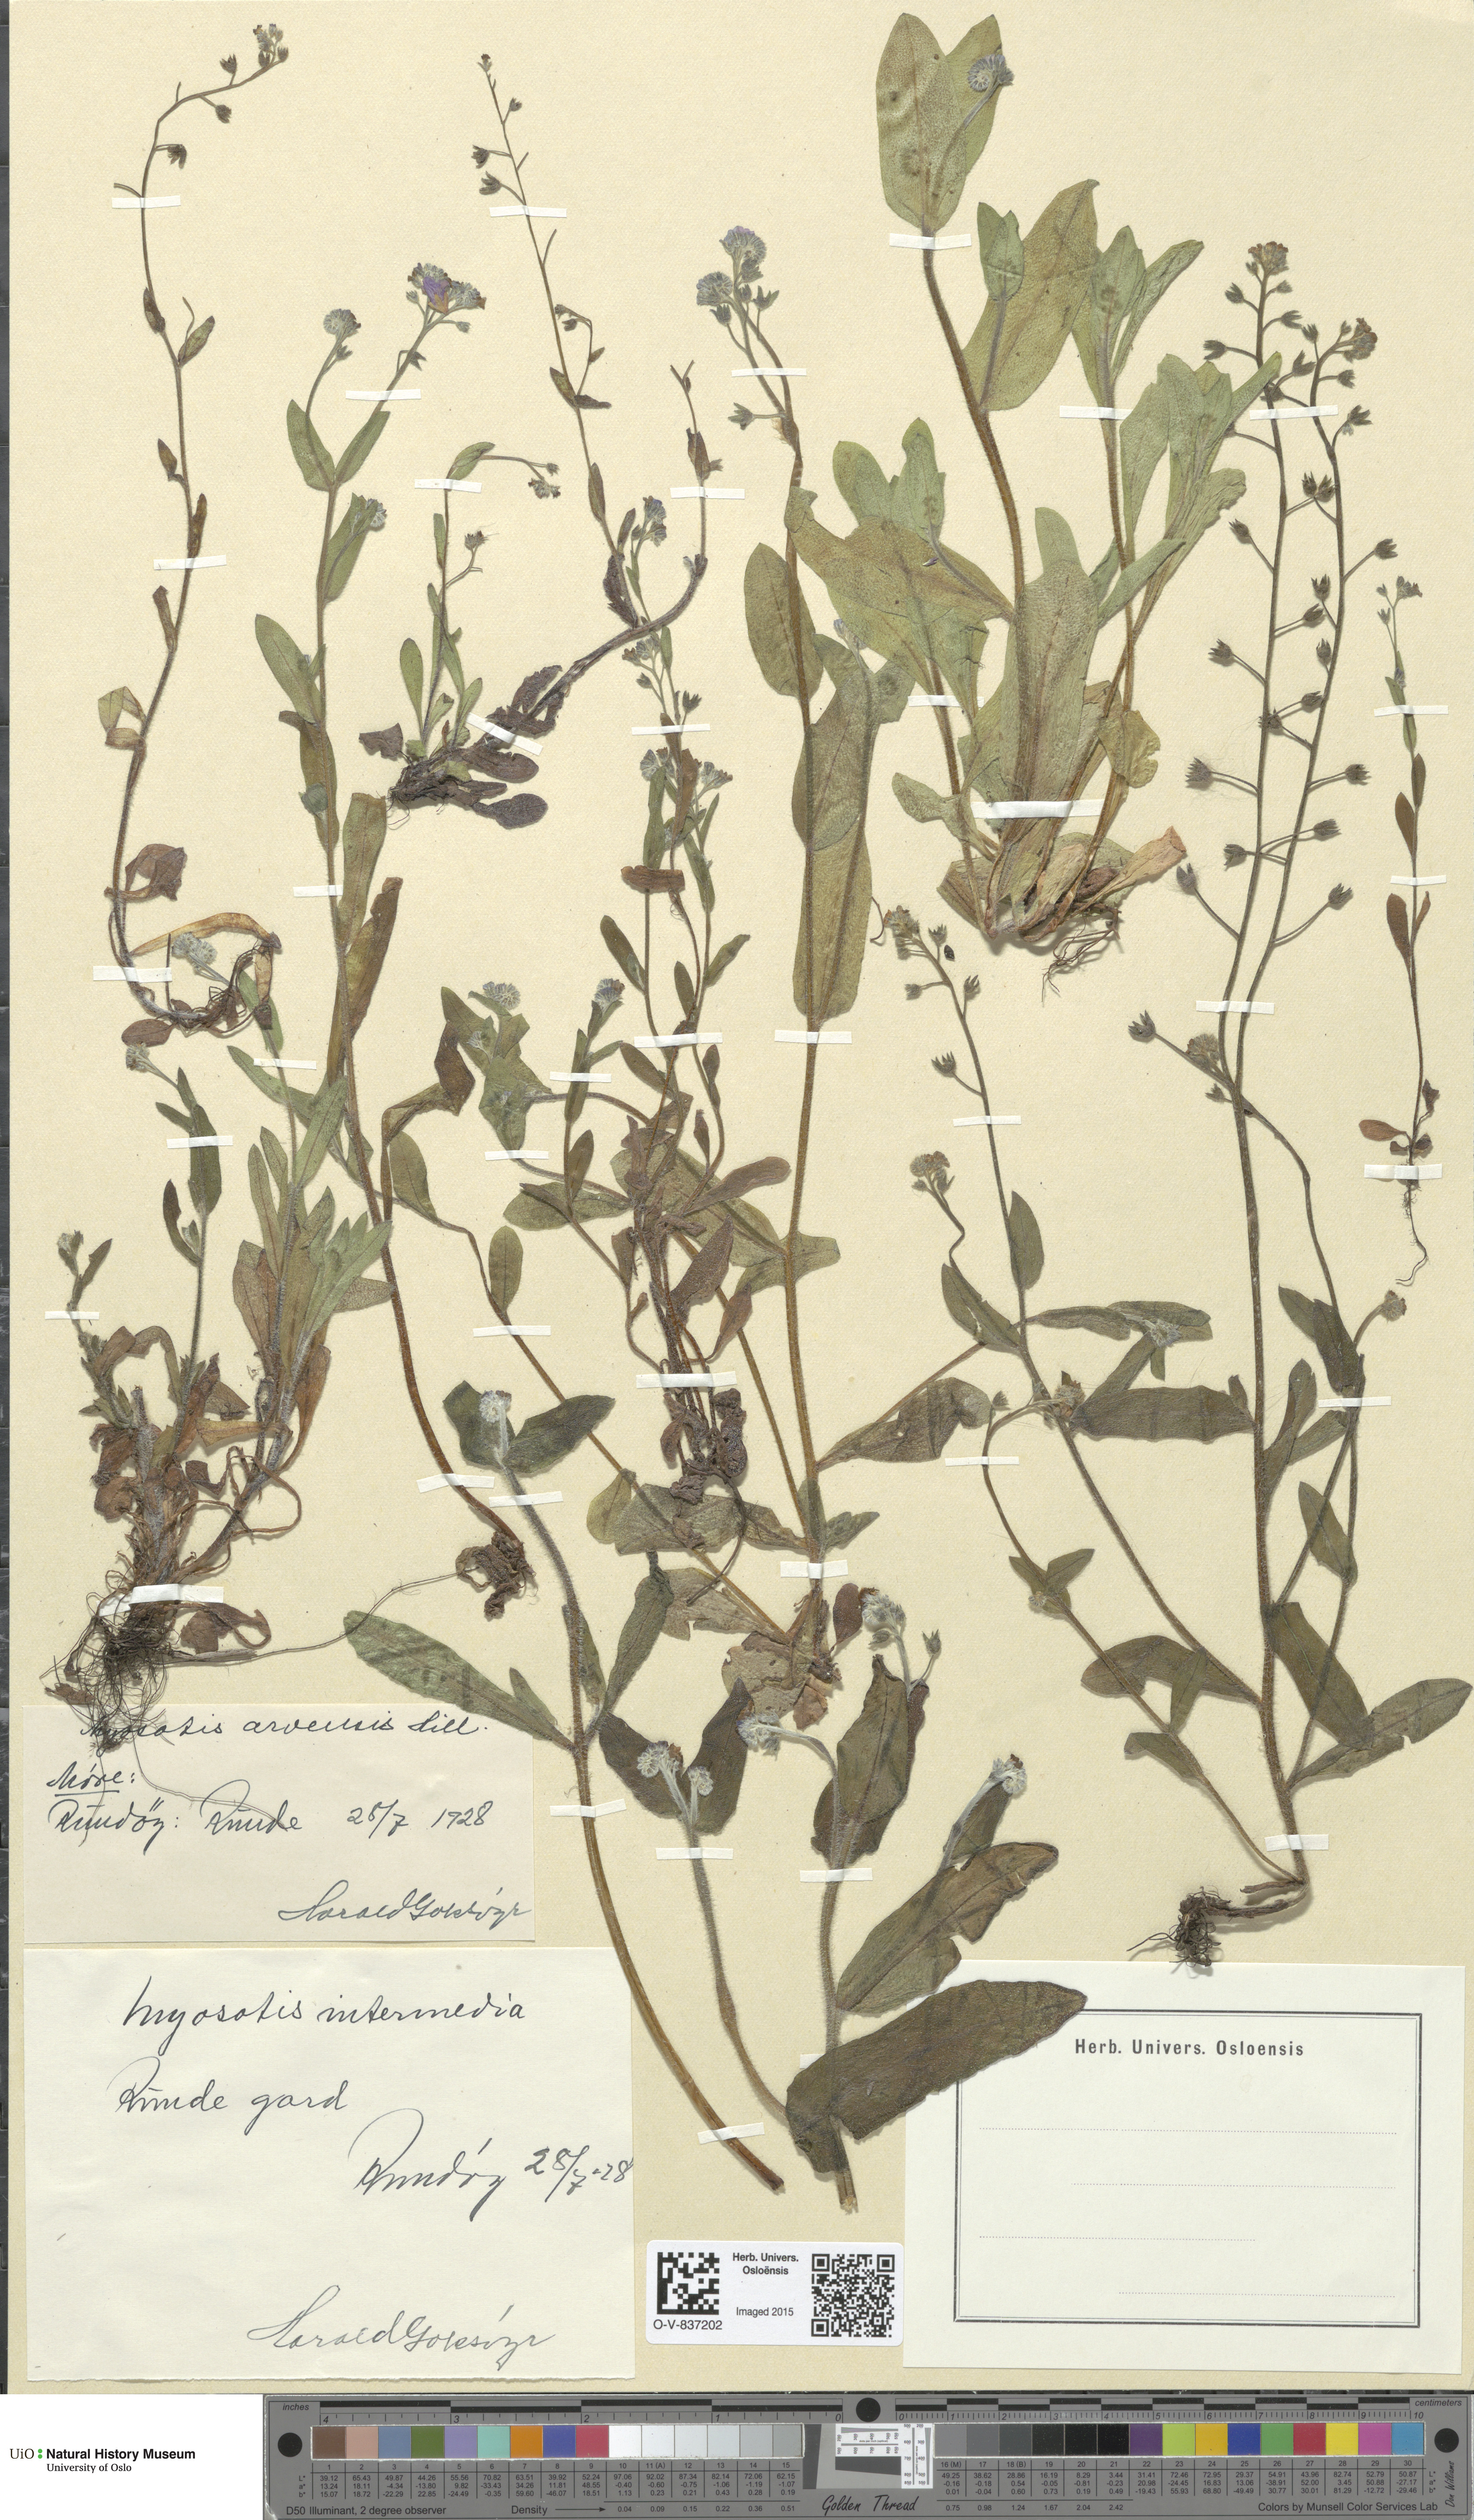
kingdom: Plantae
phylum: Tracheophyta
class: Magnoliopsida
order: Boraginales
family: Boraginaceae
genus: Myosotis
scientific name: Myosotis arvensis
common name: Field forget-me-not
